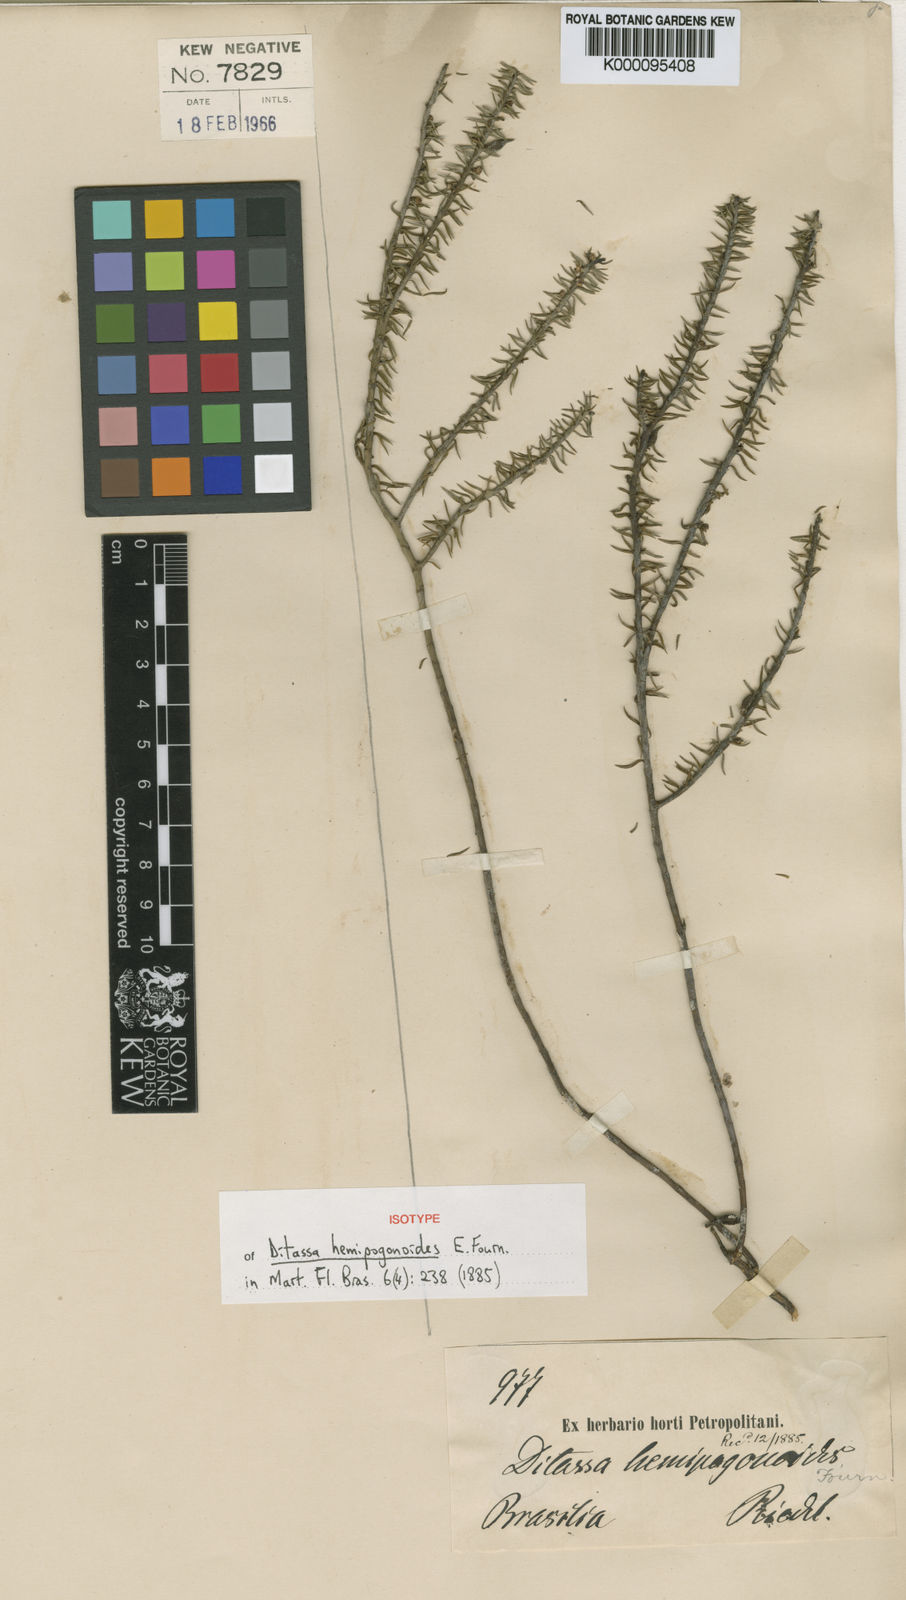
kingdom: Plantae
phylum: Tracheophyta
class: Magnoliopsida
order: Gentianales
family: Apocynaceae
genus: Minaria
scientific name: Minaria hemipogonoides
